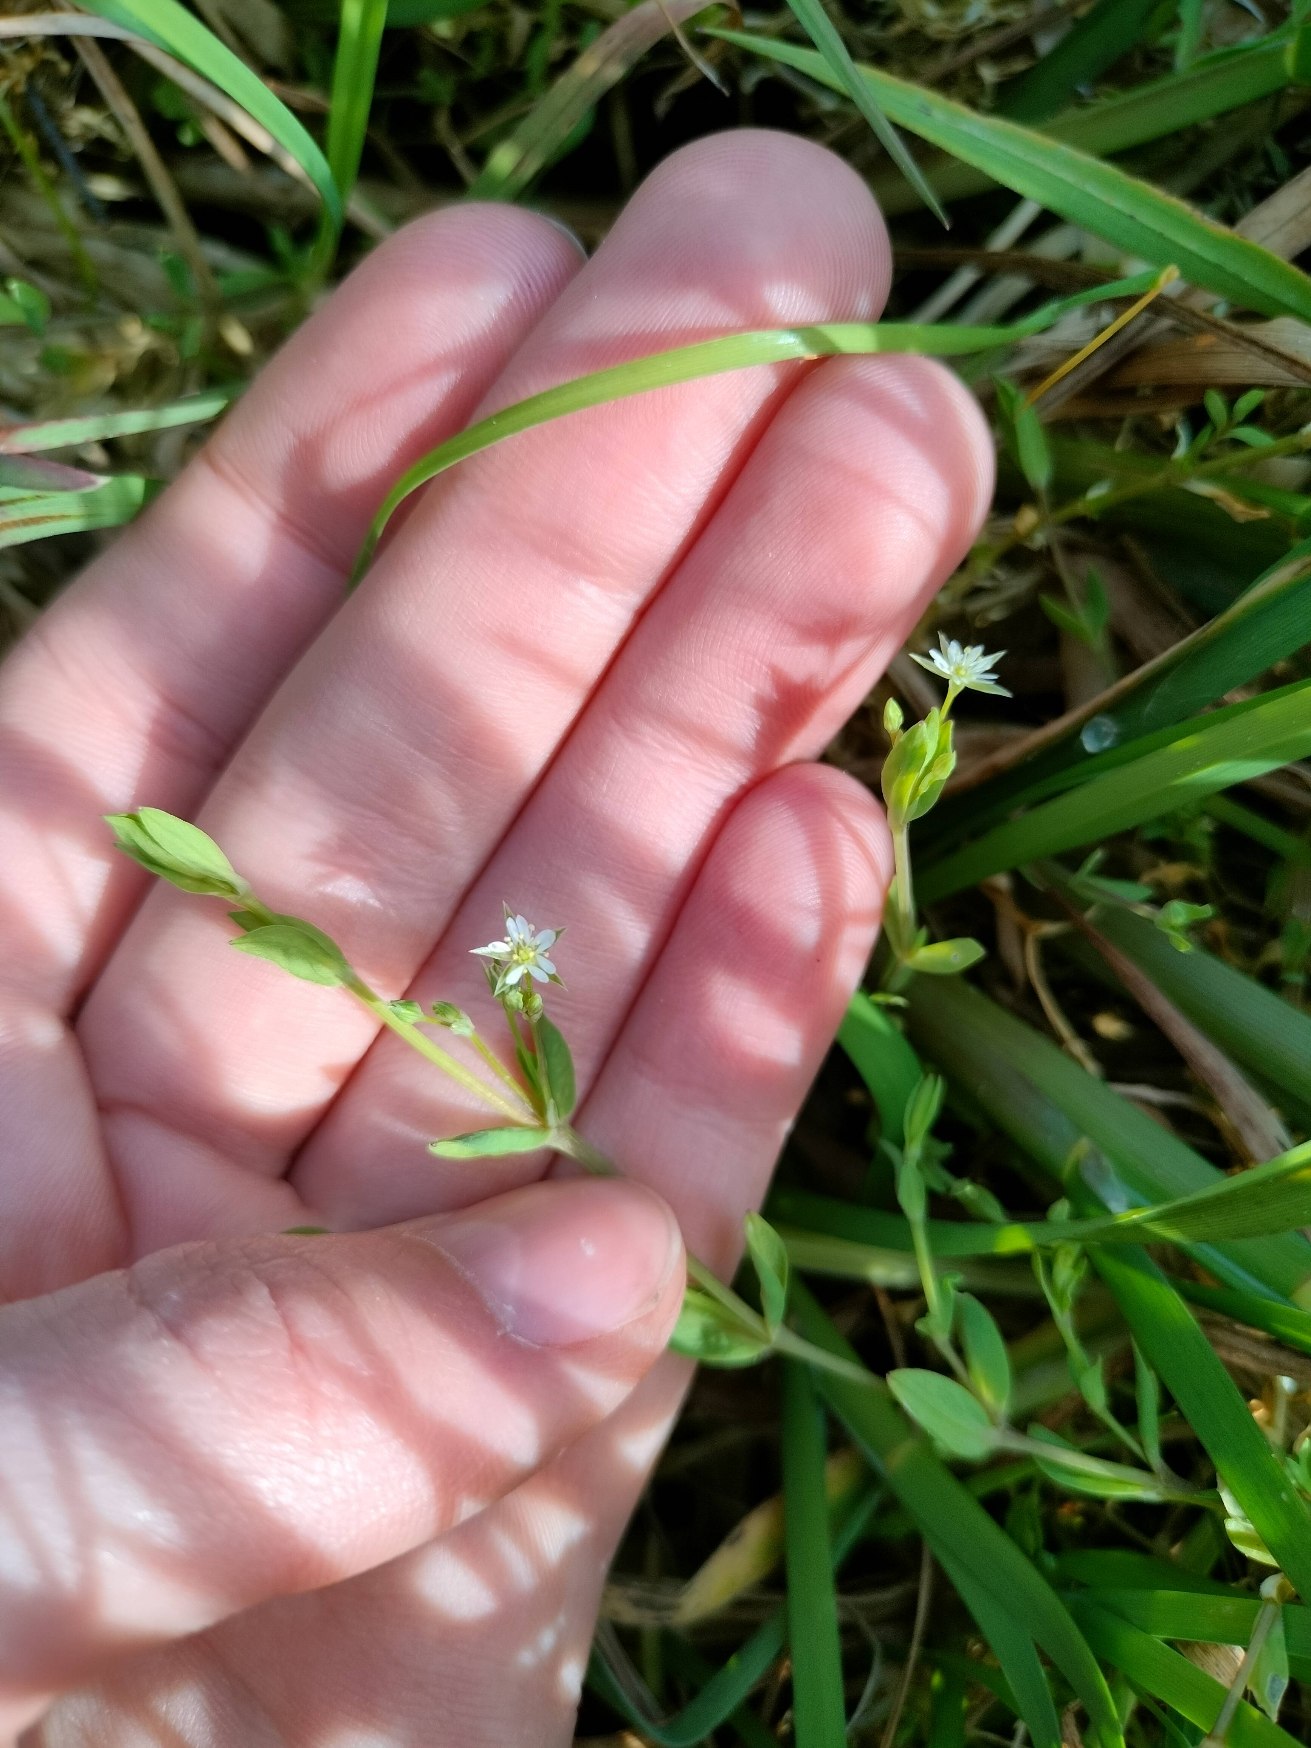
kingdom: Plantae
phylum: Tracheophyta
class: Magnoliopsida
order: Caryophyllales
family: Caryophyllaceae
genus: Stellaria
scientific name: Stellaria alsine
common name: Sump-fladstjerne
